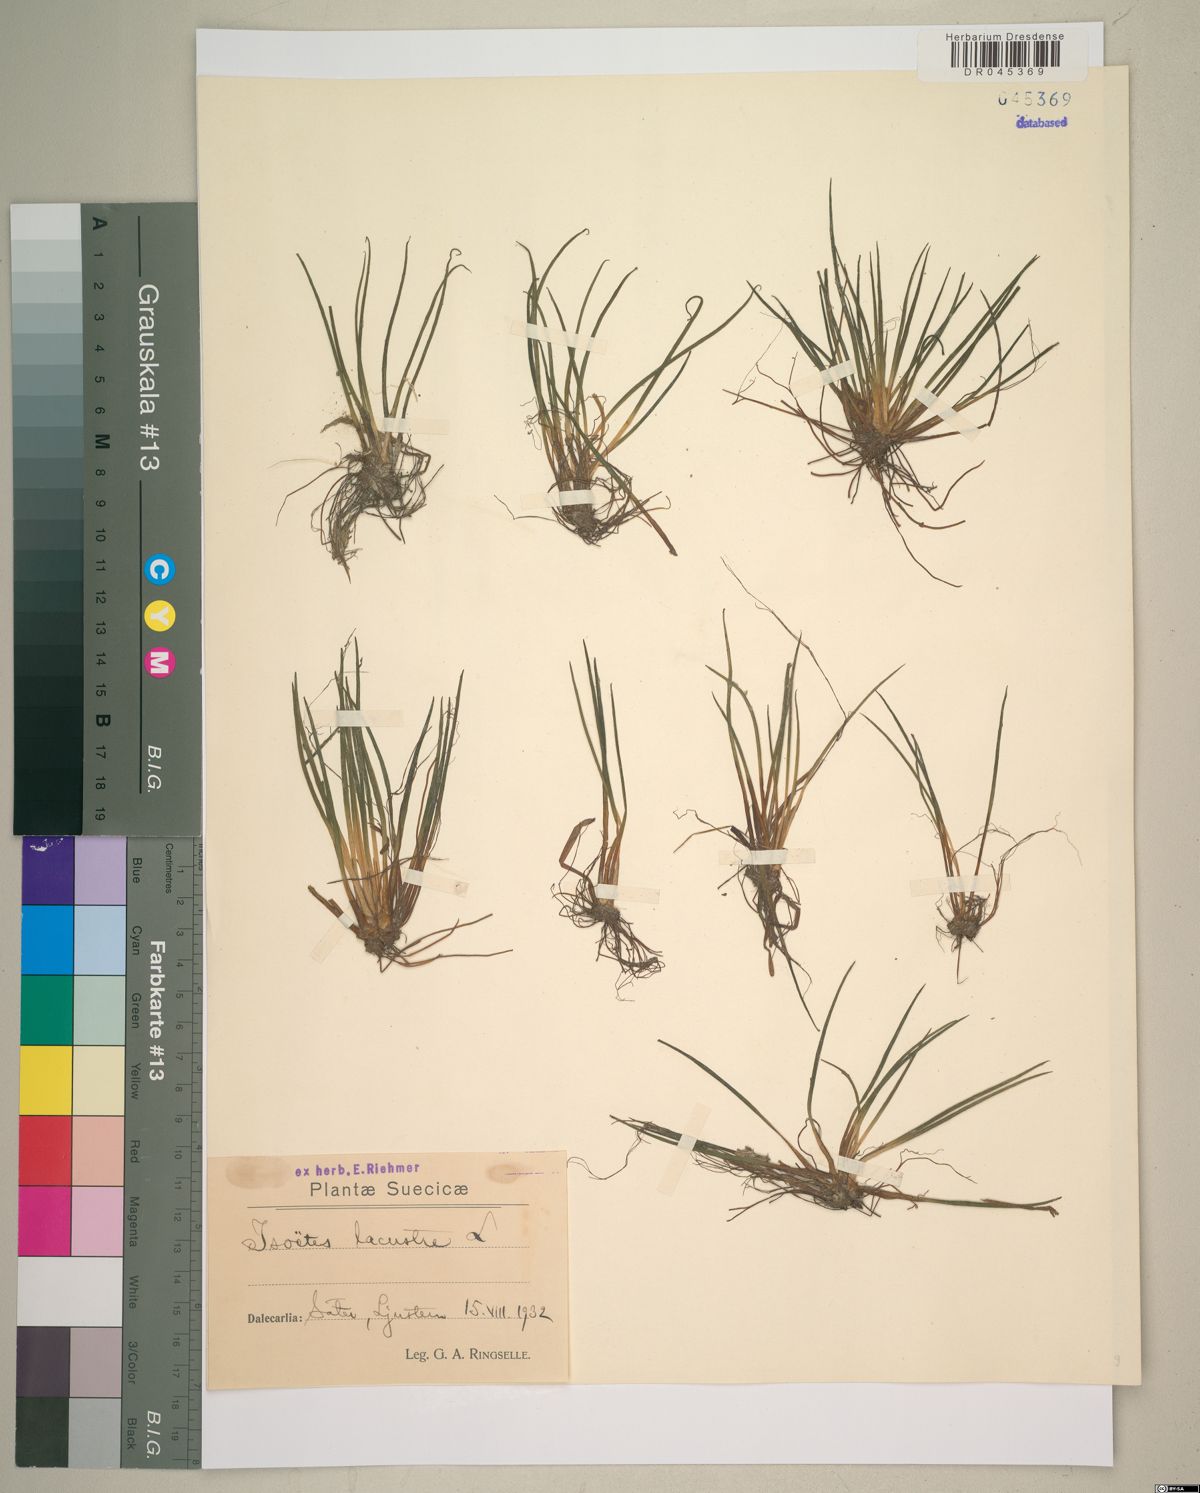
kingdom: Plantae
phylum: Tracheophyta
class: Lycopodiopsida
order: Isoetales
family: Isoetaceae
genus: Isoetes
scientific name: Isoetes lacustris
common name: Common quillwort
